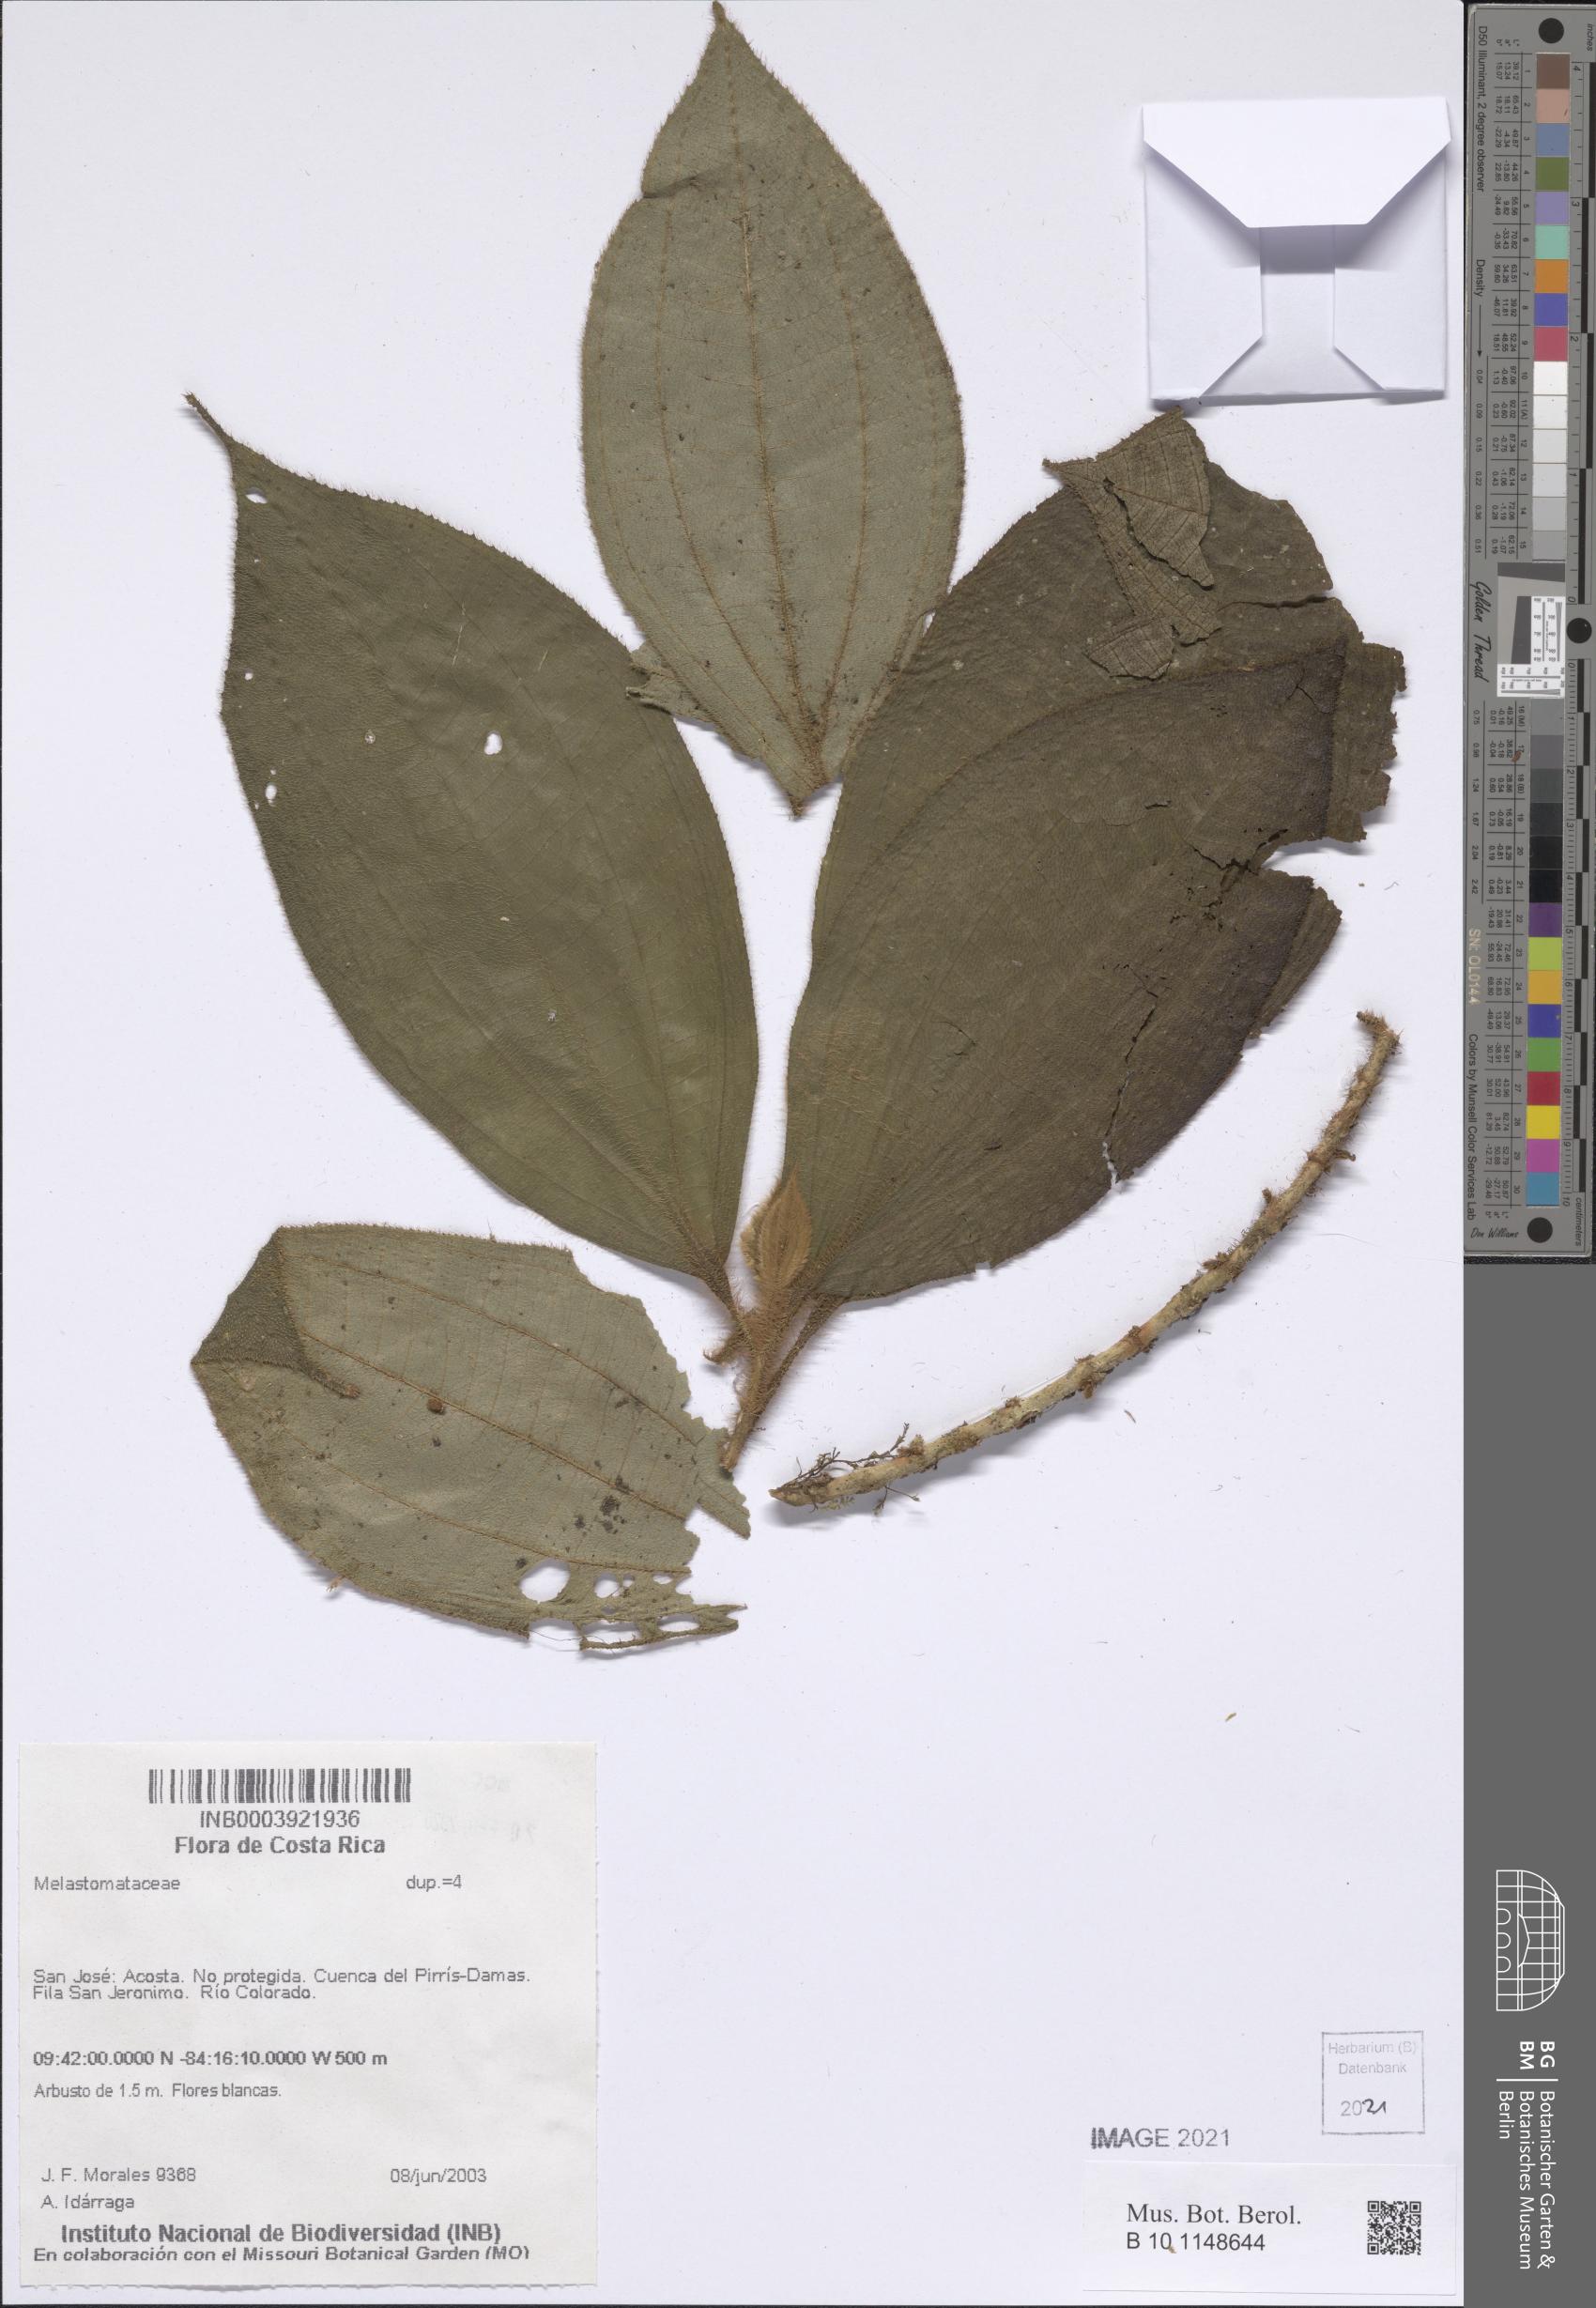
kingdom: Plantae
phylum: Tracheophyta
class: Magnoliopsida
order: Myrtales
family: Melastomataceae
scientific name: Melastomataceae
